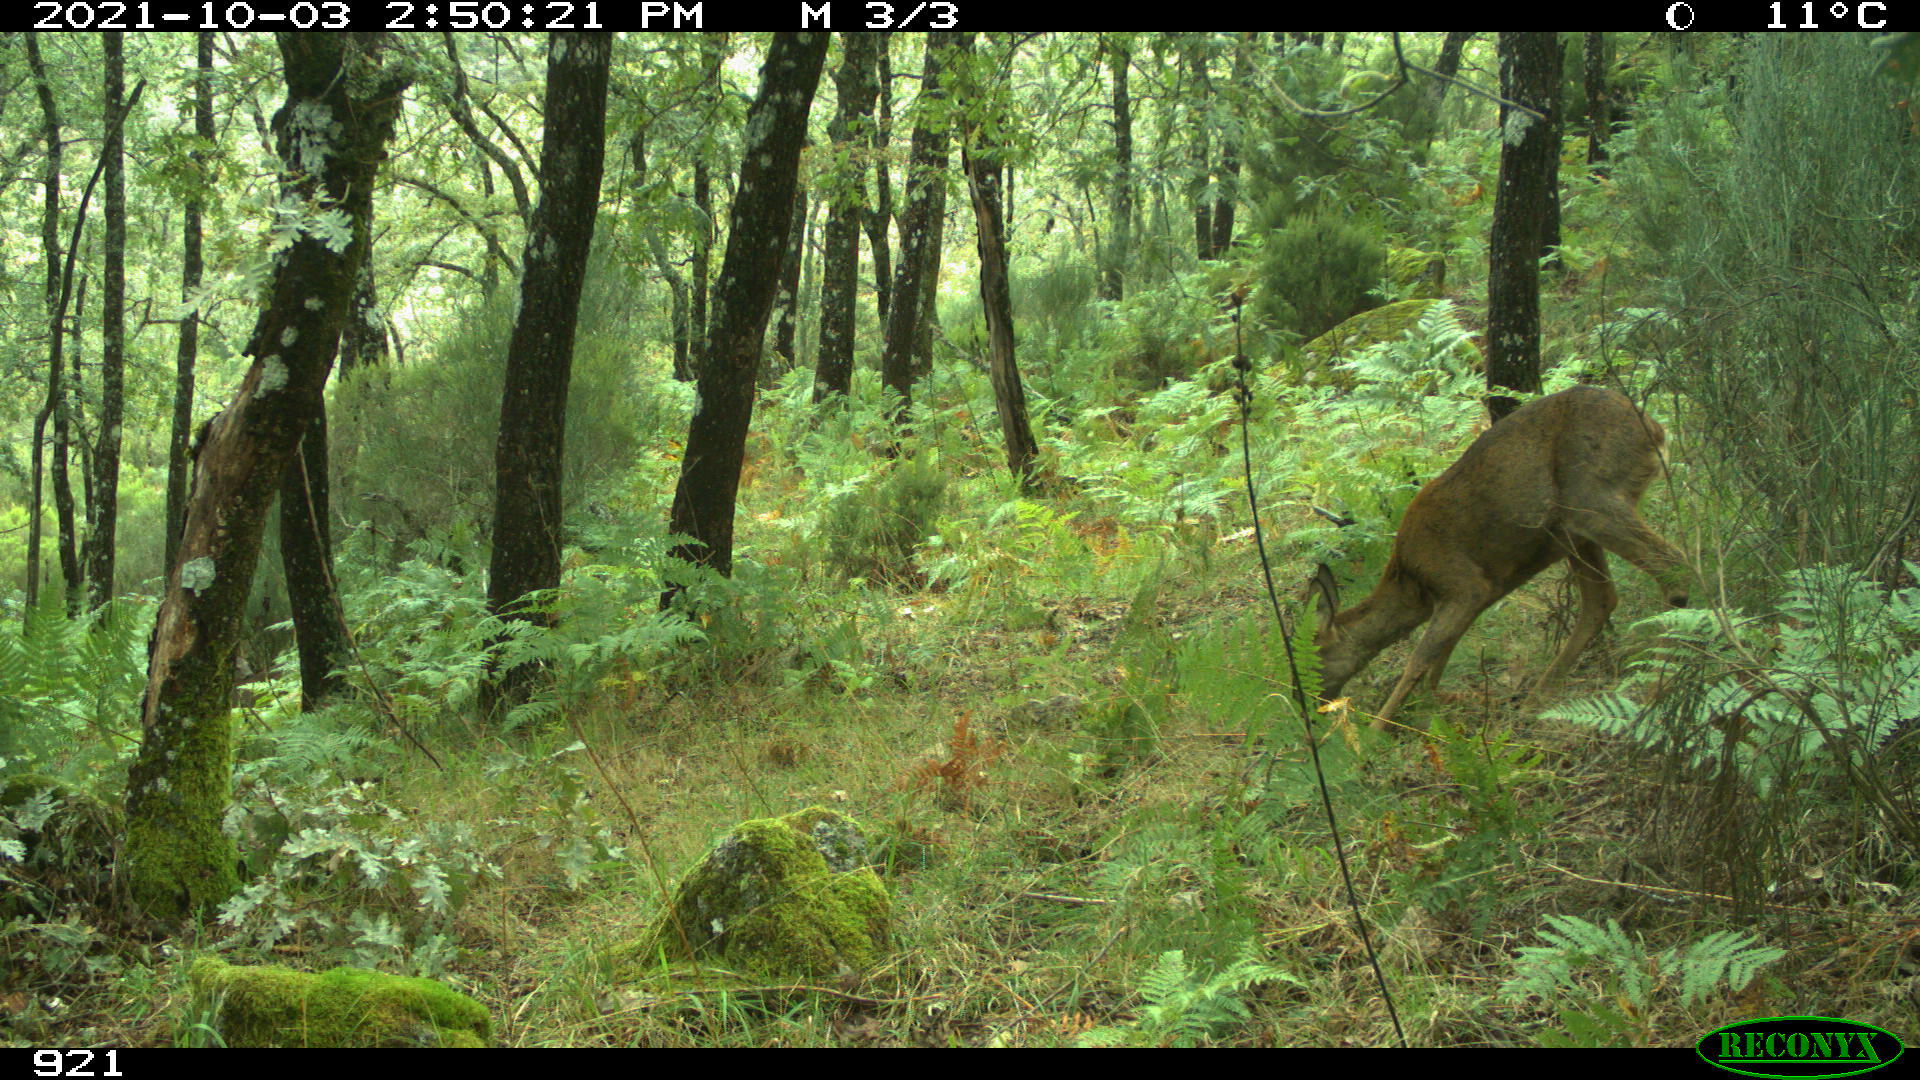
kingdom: Animalia
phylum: Chordata
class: Mammalia
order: Artiodactyla
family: Cervidae
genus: Capreolus
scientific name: Capreolus capreolus
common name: Western roe deer
